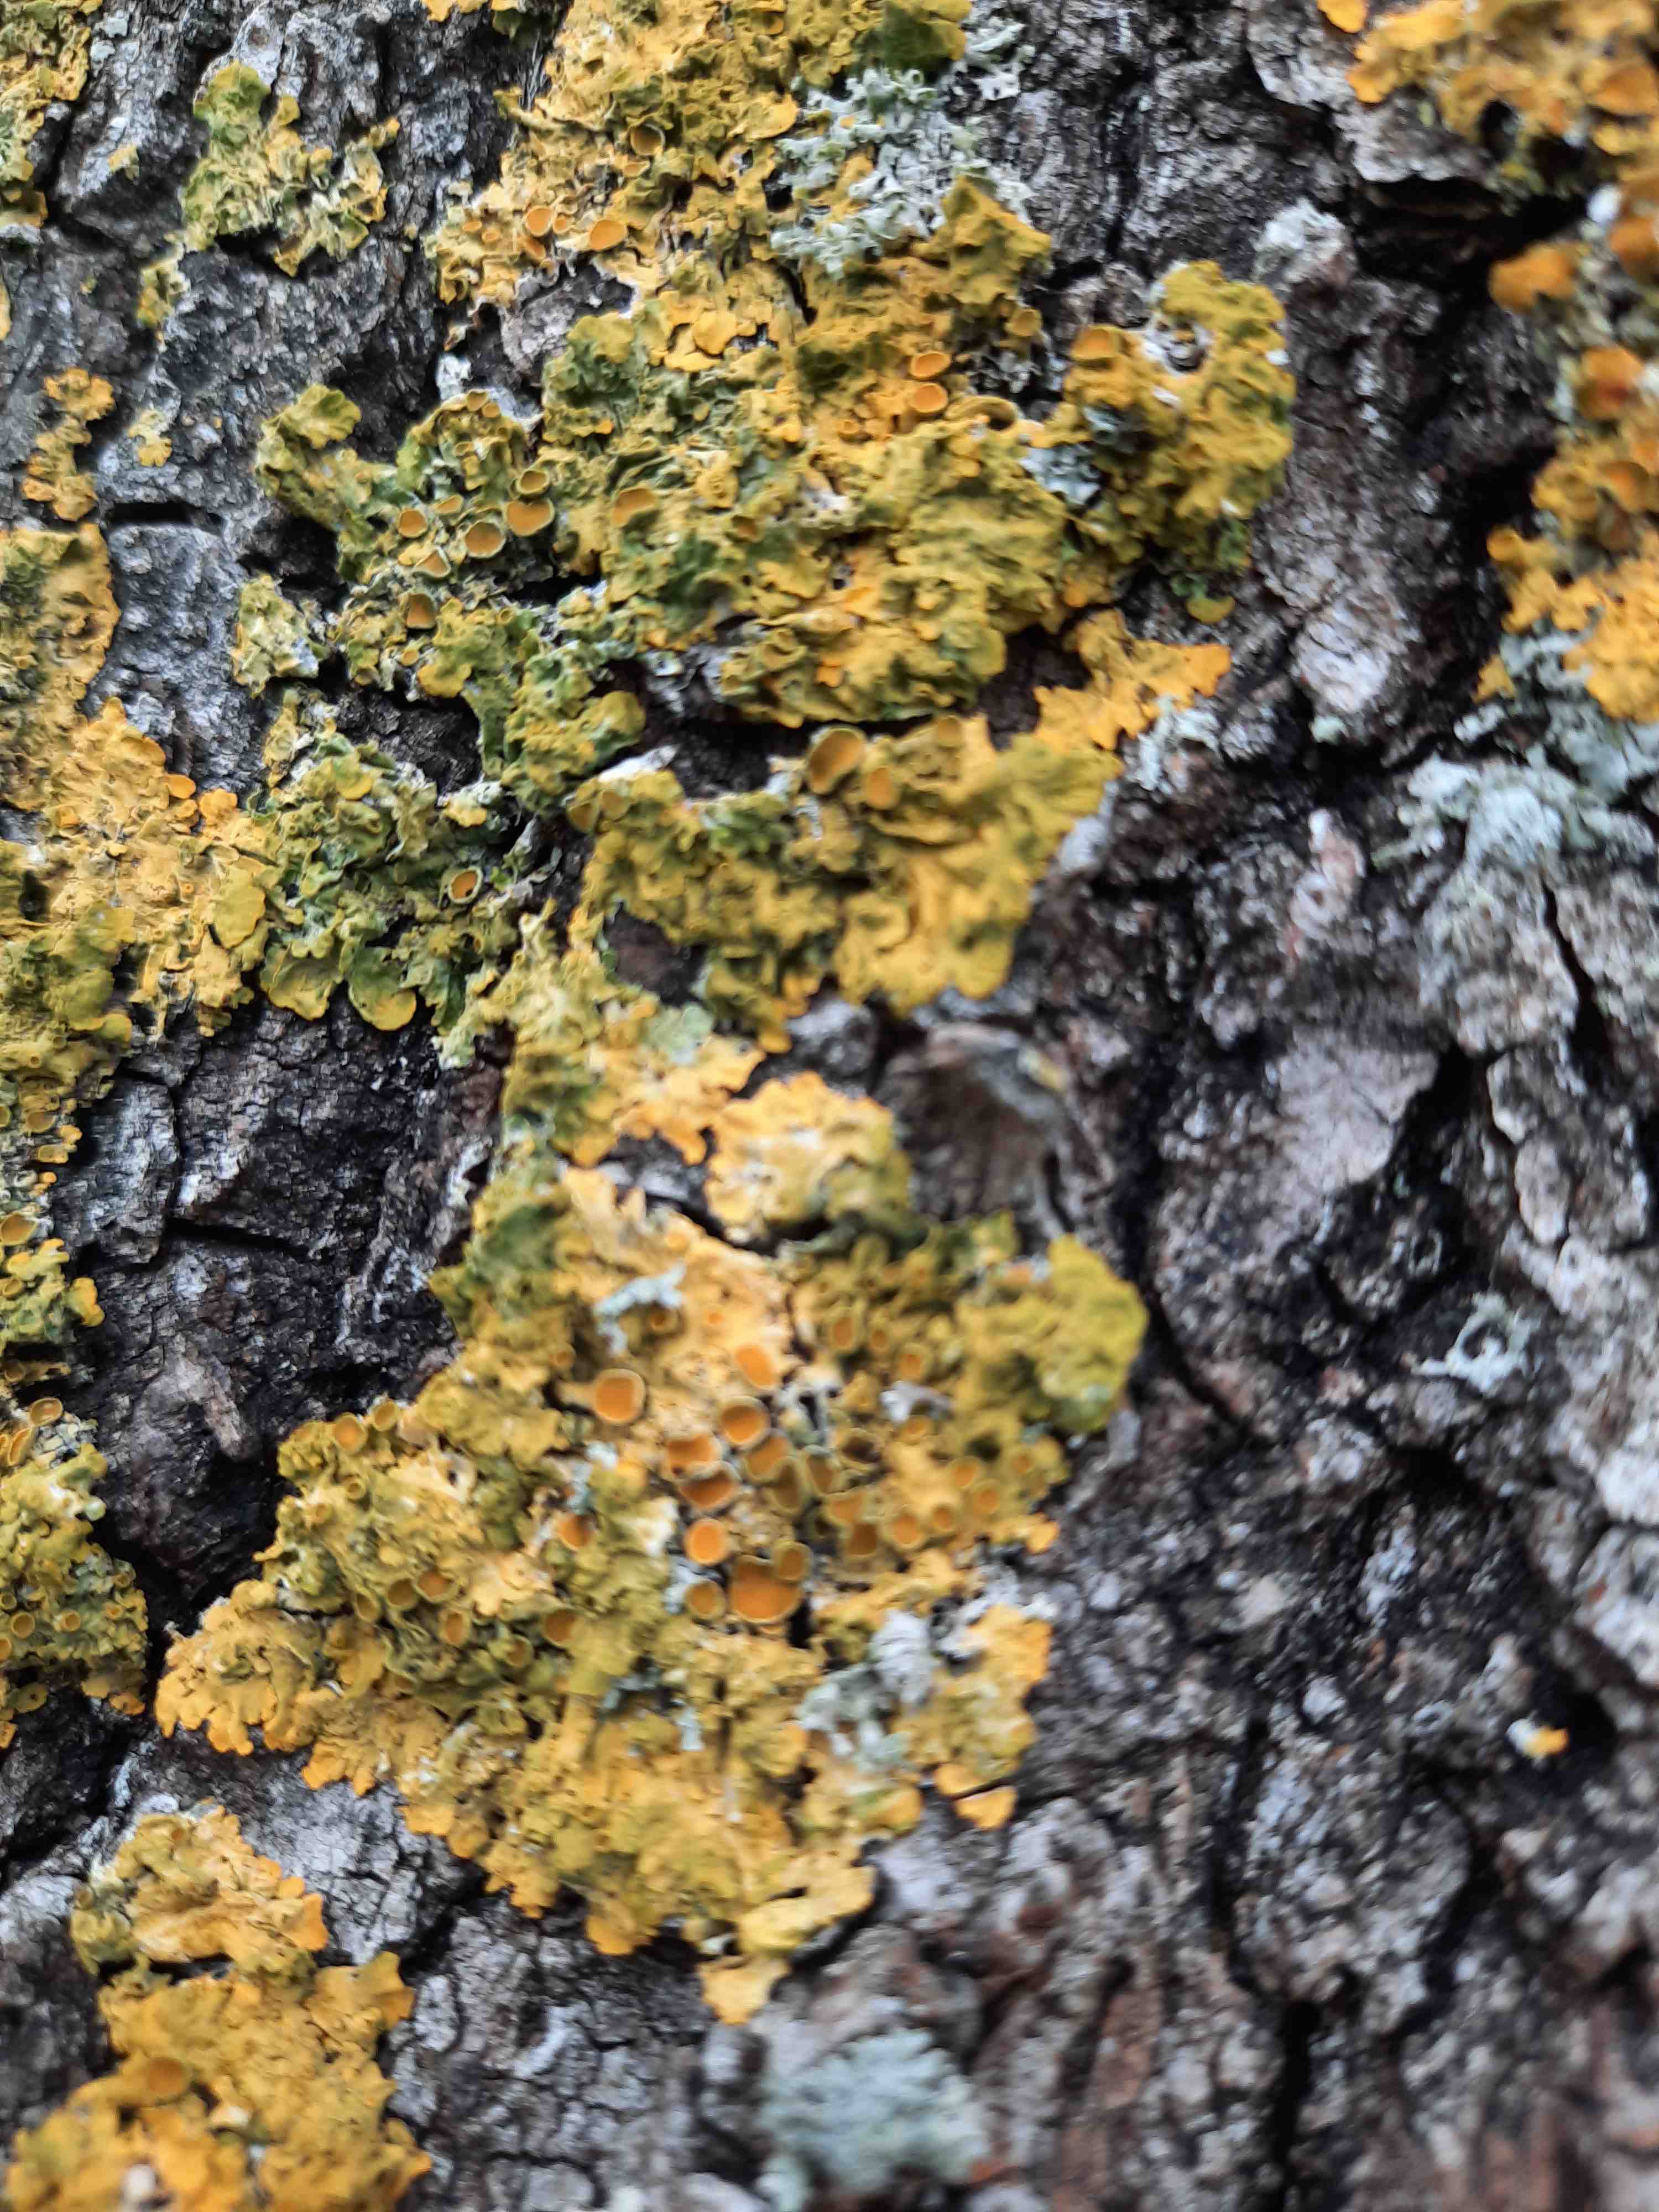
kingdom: Fungi
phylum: Ascomycota
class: Lecanoromycetes
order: Teloschistales
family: Teloschistaceae
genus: Xanthoria
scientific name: Xanthoria parietina
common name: almindelig væggelav
